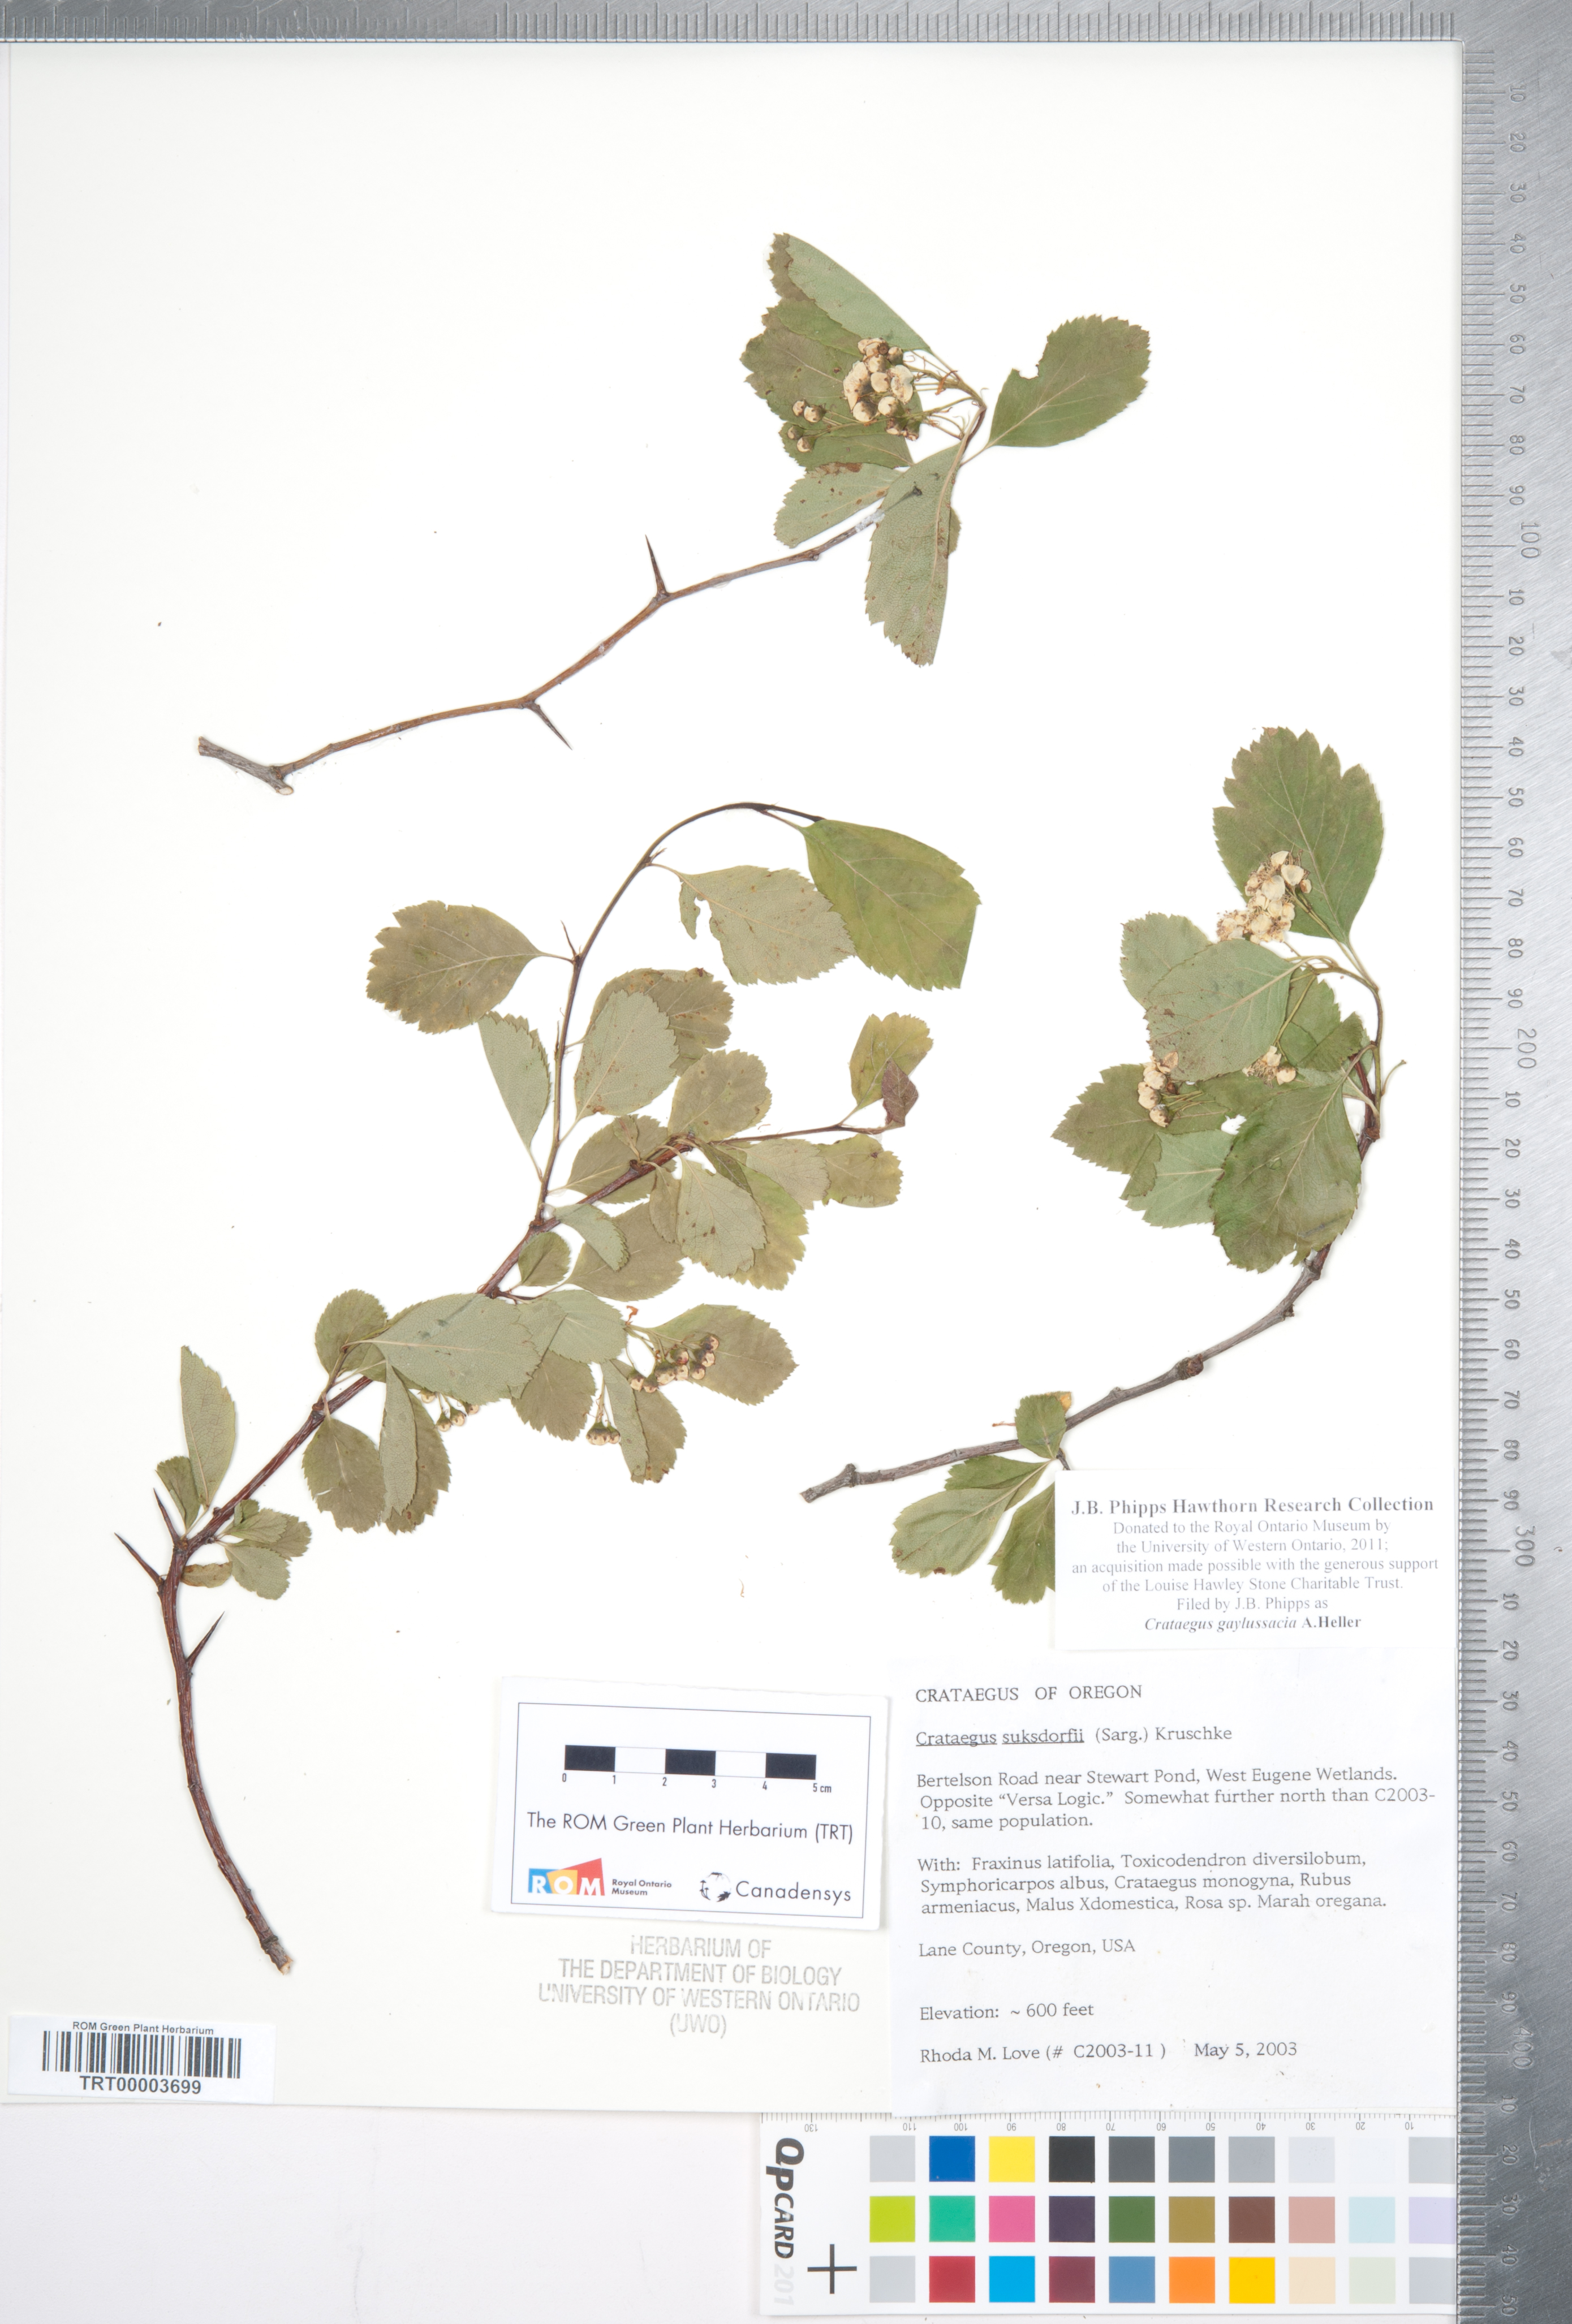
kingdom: Plantae
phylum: Tracheophyta
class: Magnoliopsida
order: Rosales
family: Rosaceae
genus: Crataegus
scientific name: Crataegus gaylussacia
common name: Huckleberry hawthorn
